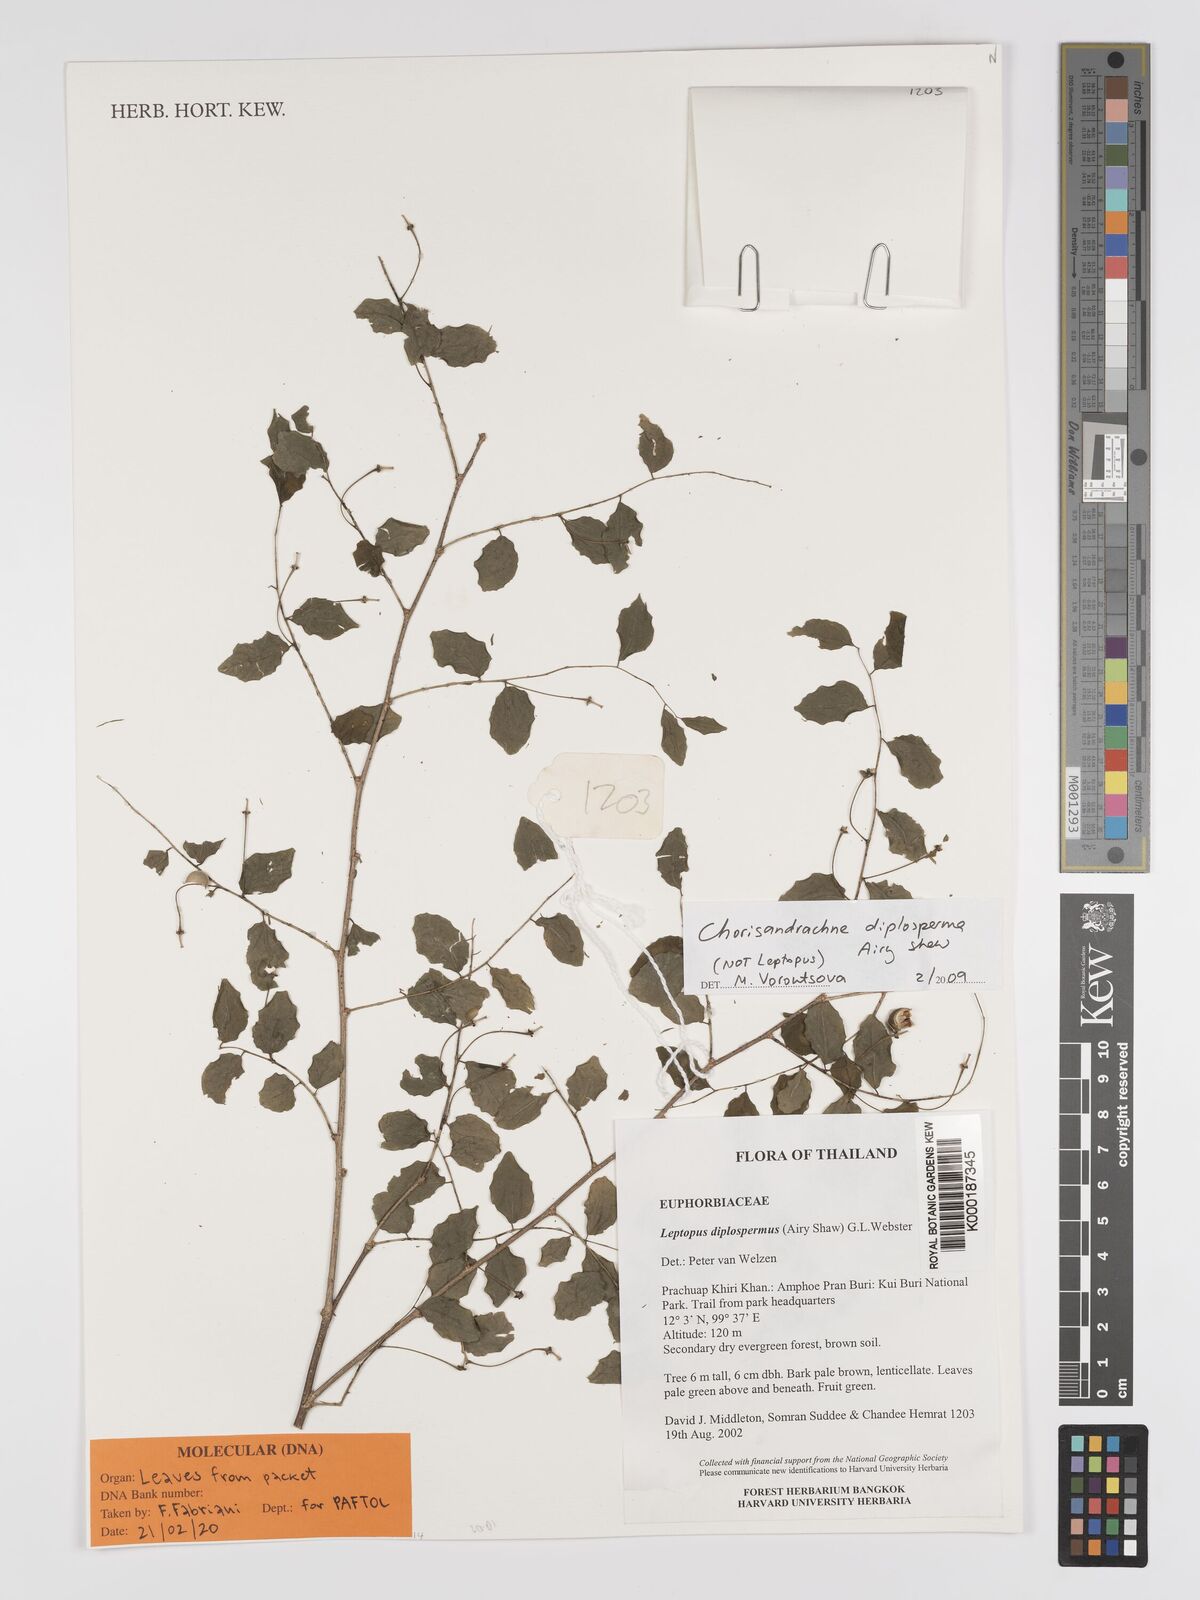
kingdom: Plantae
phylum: Tracheophyta
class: Magnoliopsida
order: Malpighiales
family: Phyllanthaceae
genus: Chorisandrachne
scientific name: Chorisandrachne diplosperma
